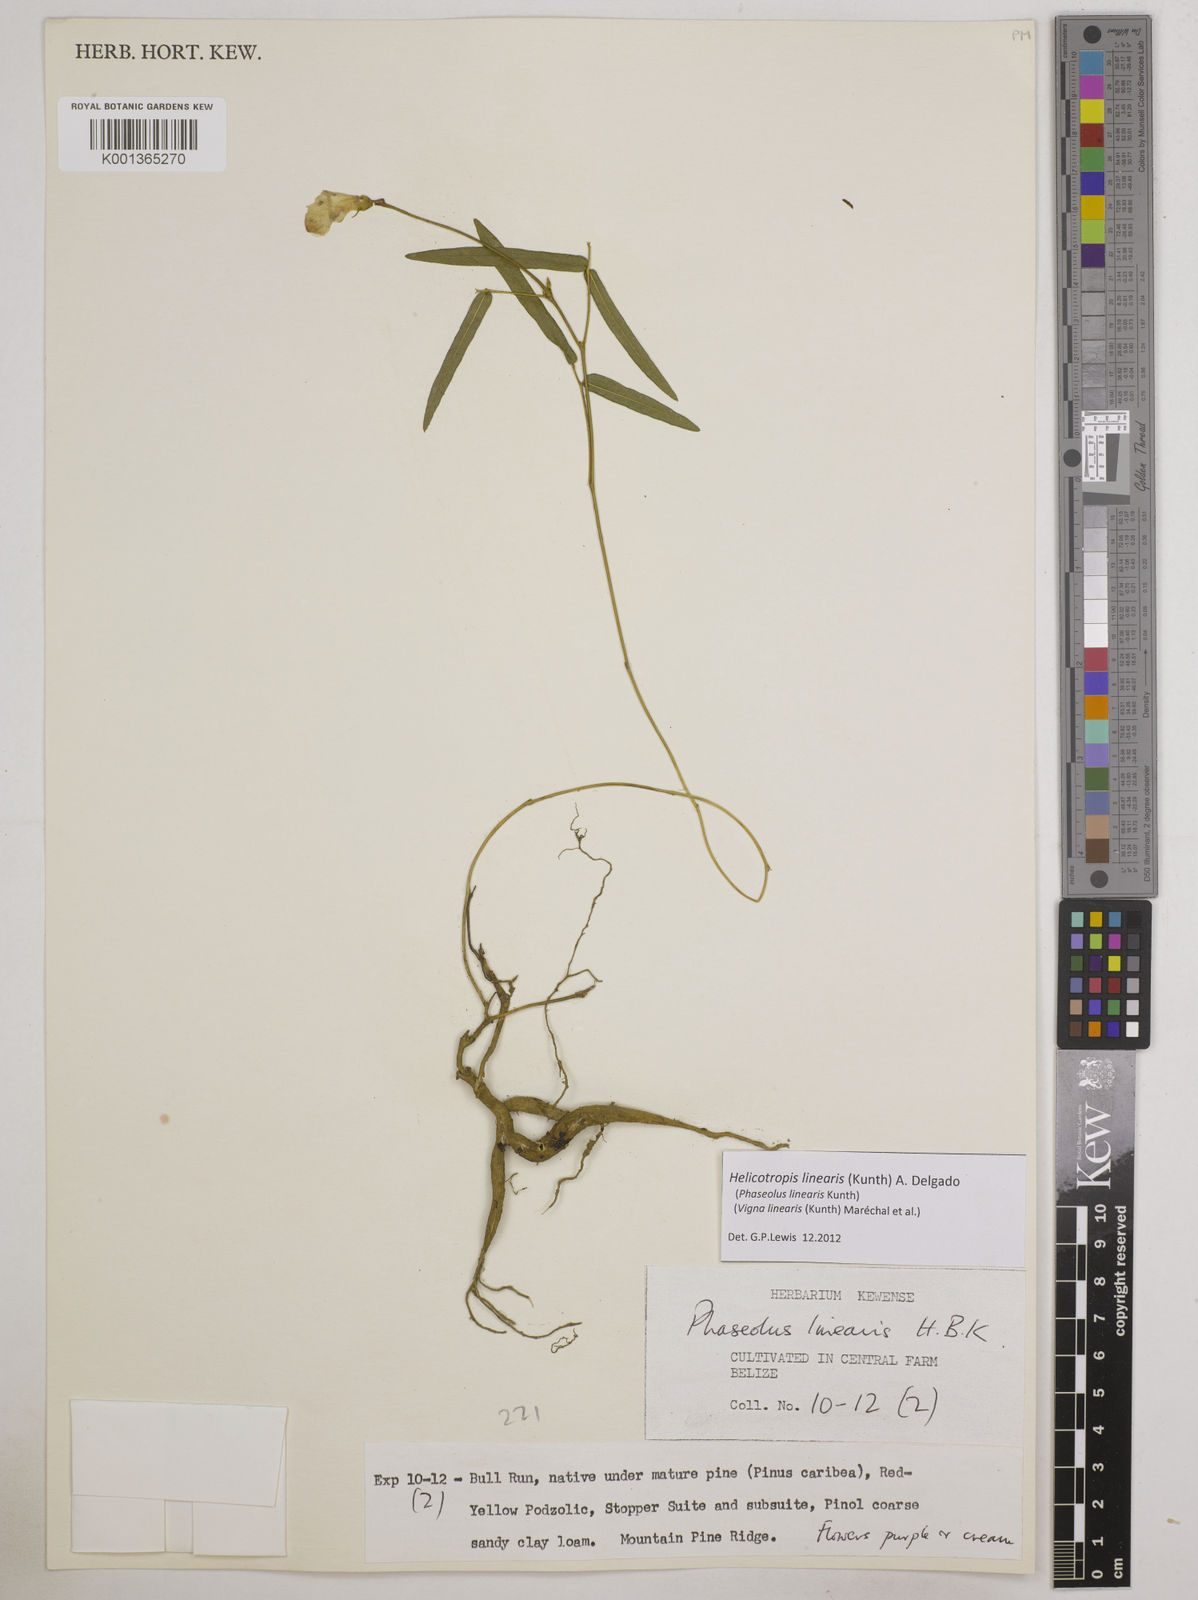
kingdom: Plantae
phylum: Tracheophyta
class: Magnoliopsida
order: Fabales
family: Fabaceae
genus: Helicotropis
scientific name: Helicotropis linearis
